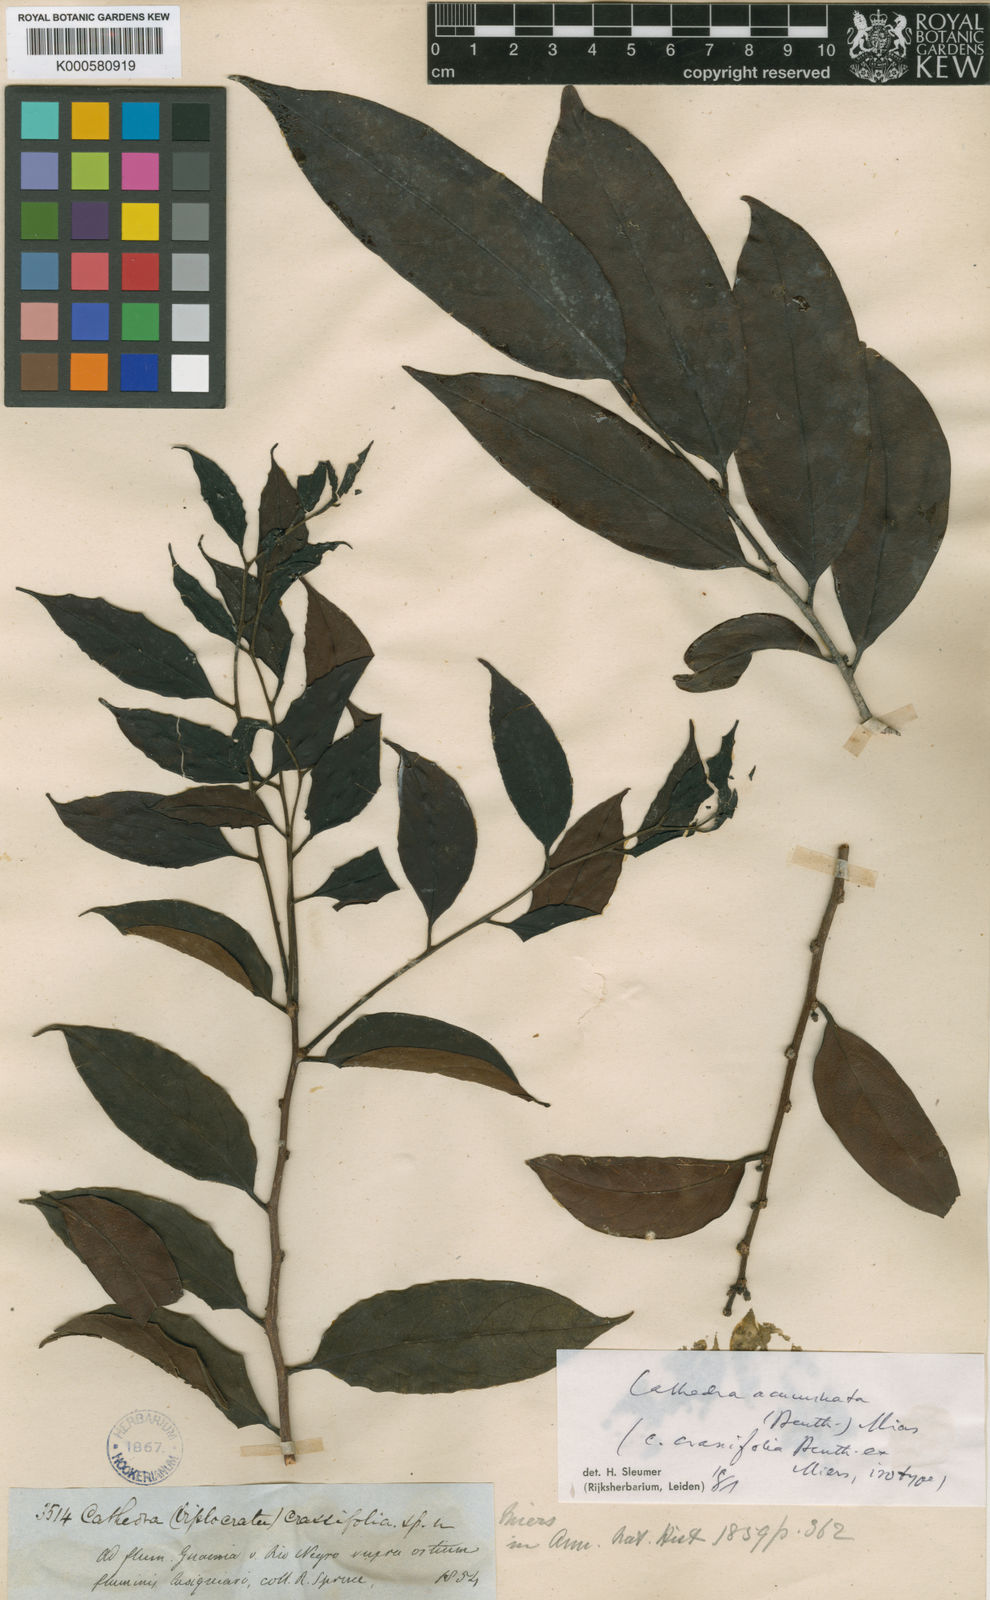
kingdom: Plantae
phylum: Tracheophyta
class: Magnoliopsida
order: Santalales
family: Aptandraceae
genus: Cathedra
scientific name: Cathedra acuminata
